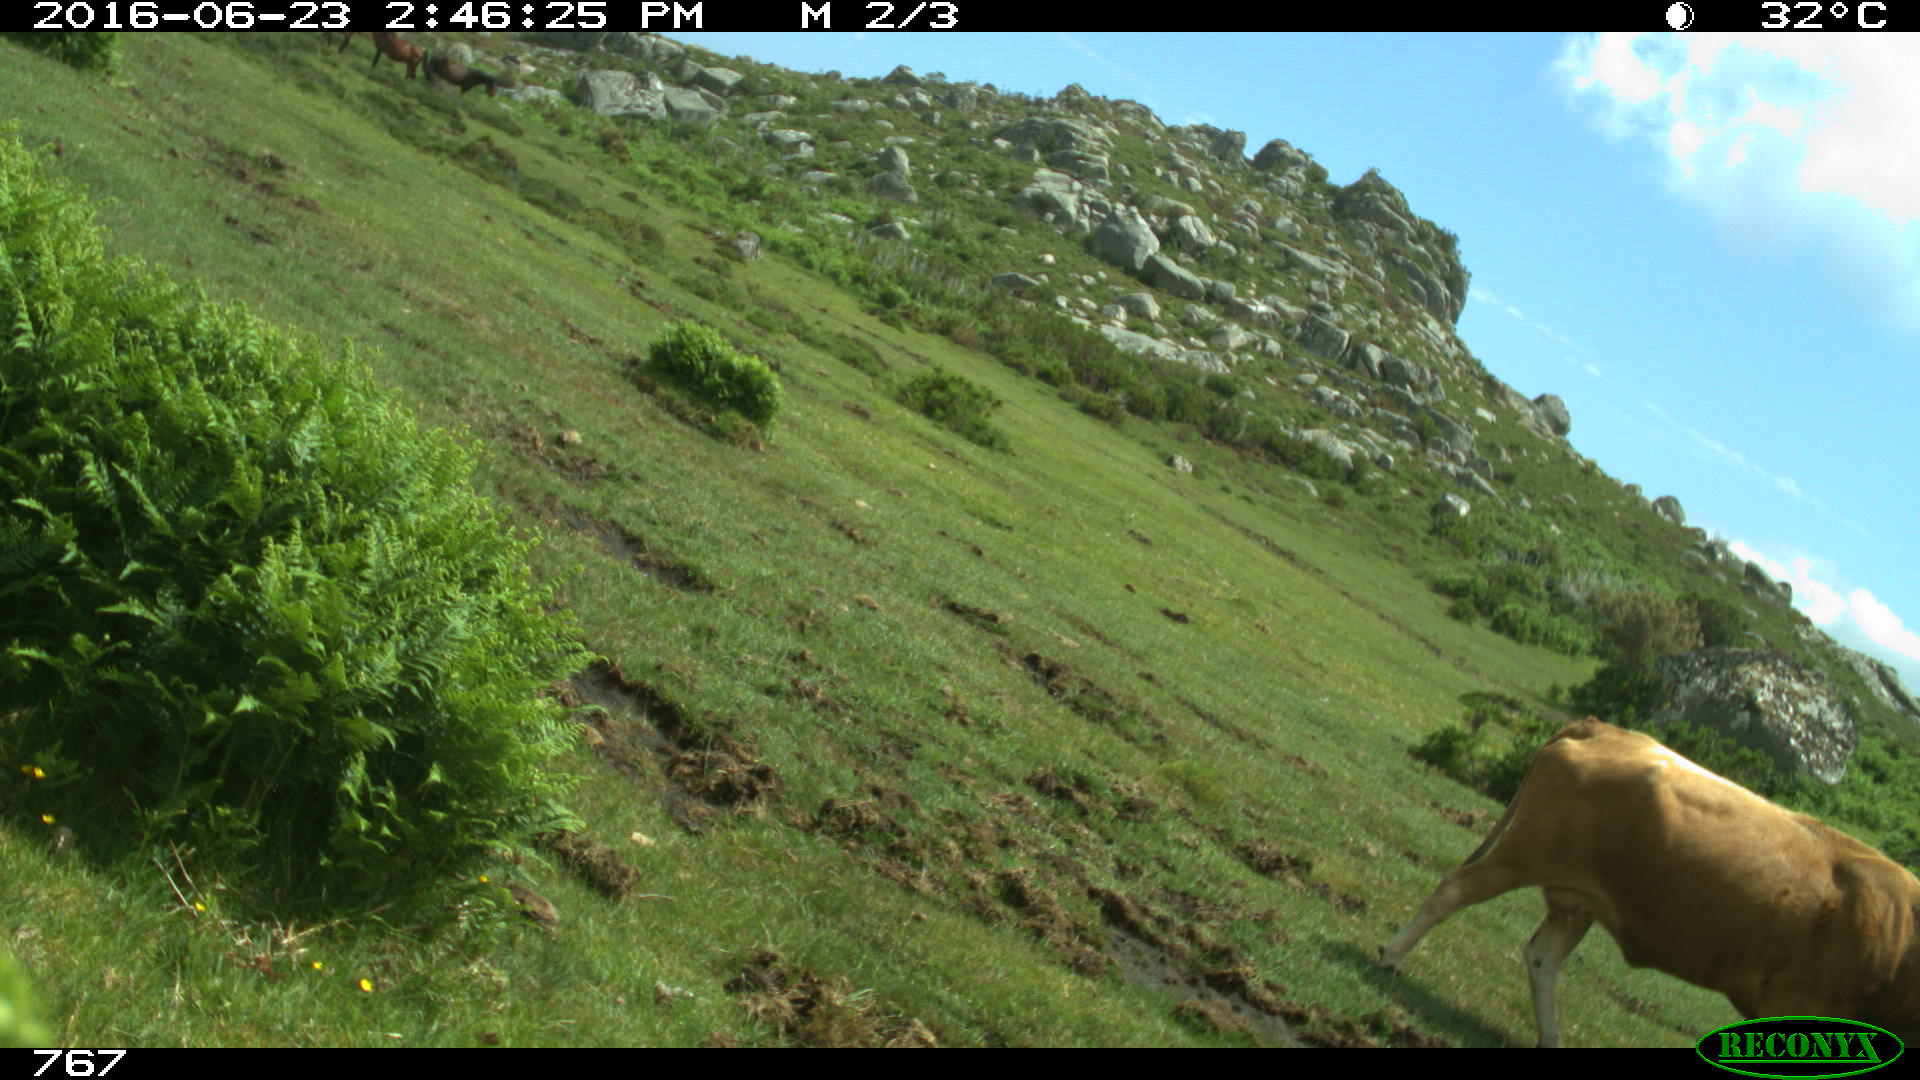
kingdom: Animalia
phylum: Chordata
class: Mammalia
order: Artiodactyla
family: Bovidae
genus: Bos
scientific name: Bos taurus
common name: Domesticated cattle
